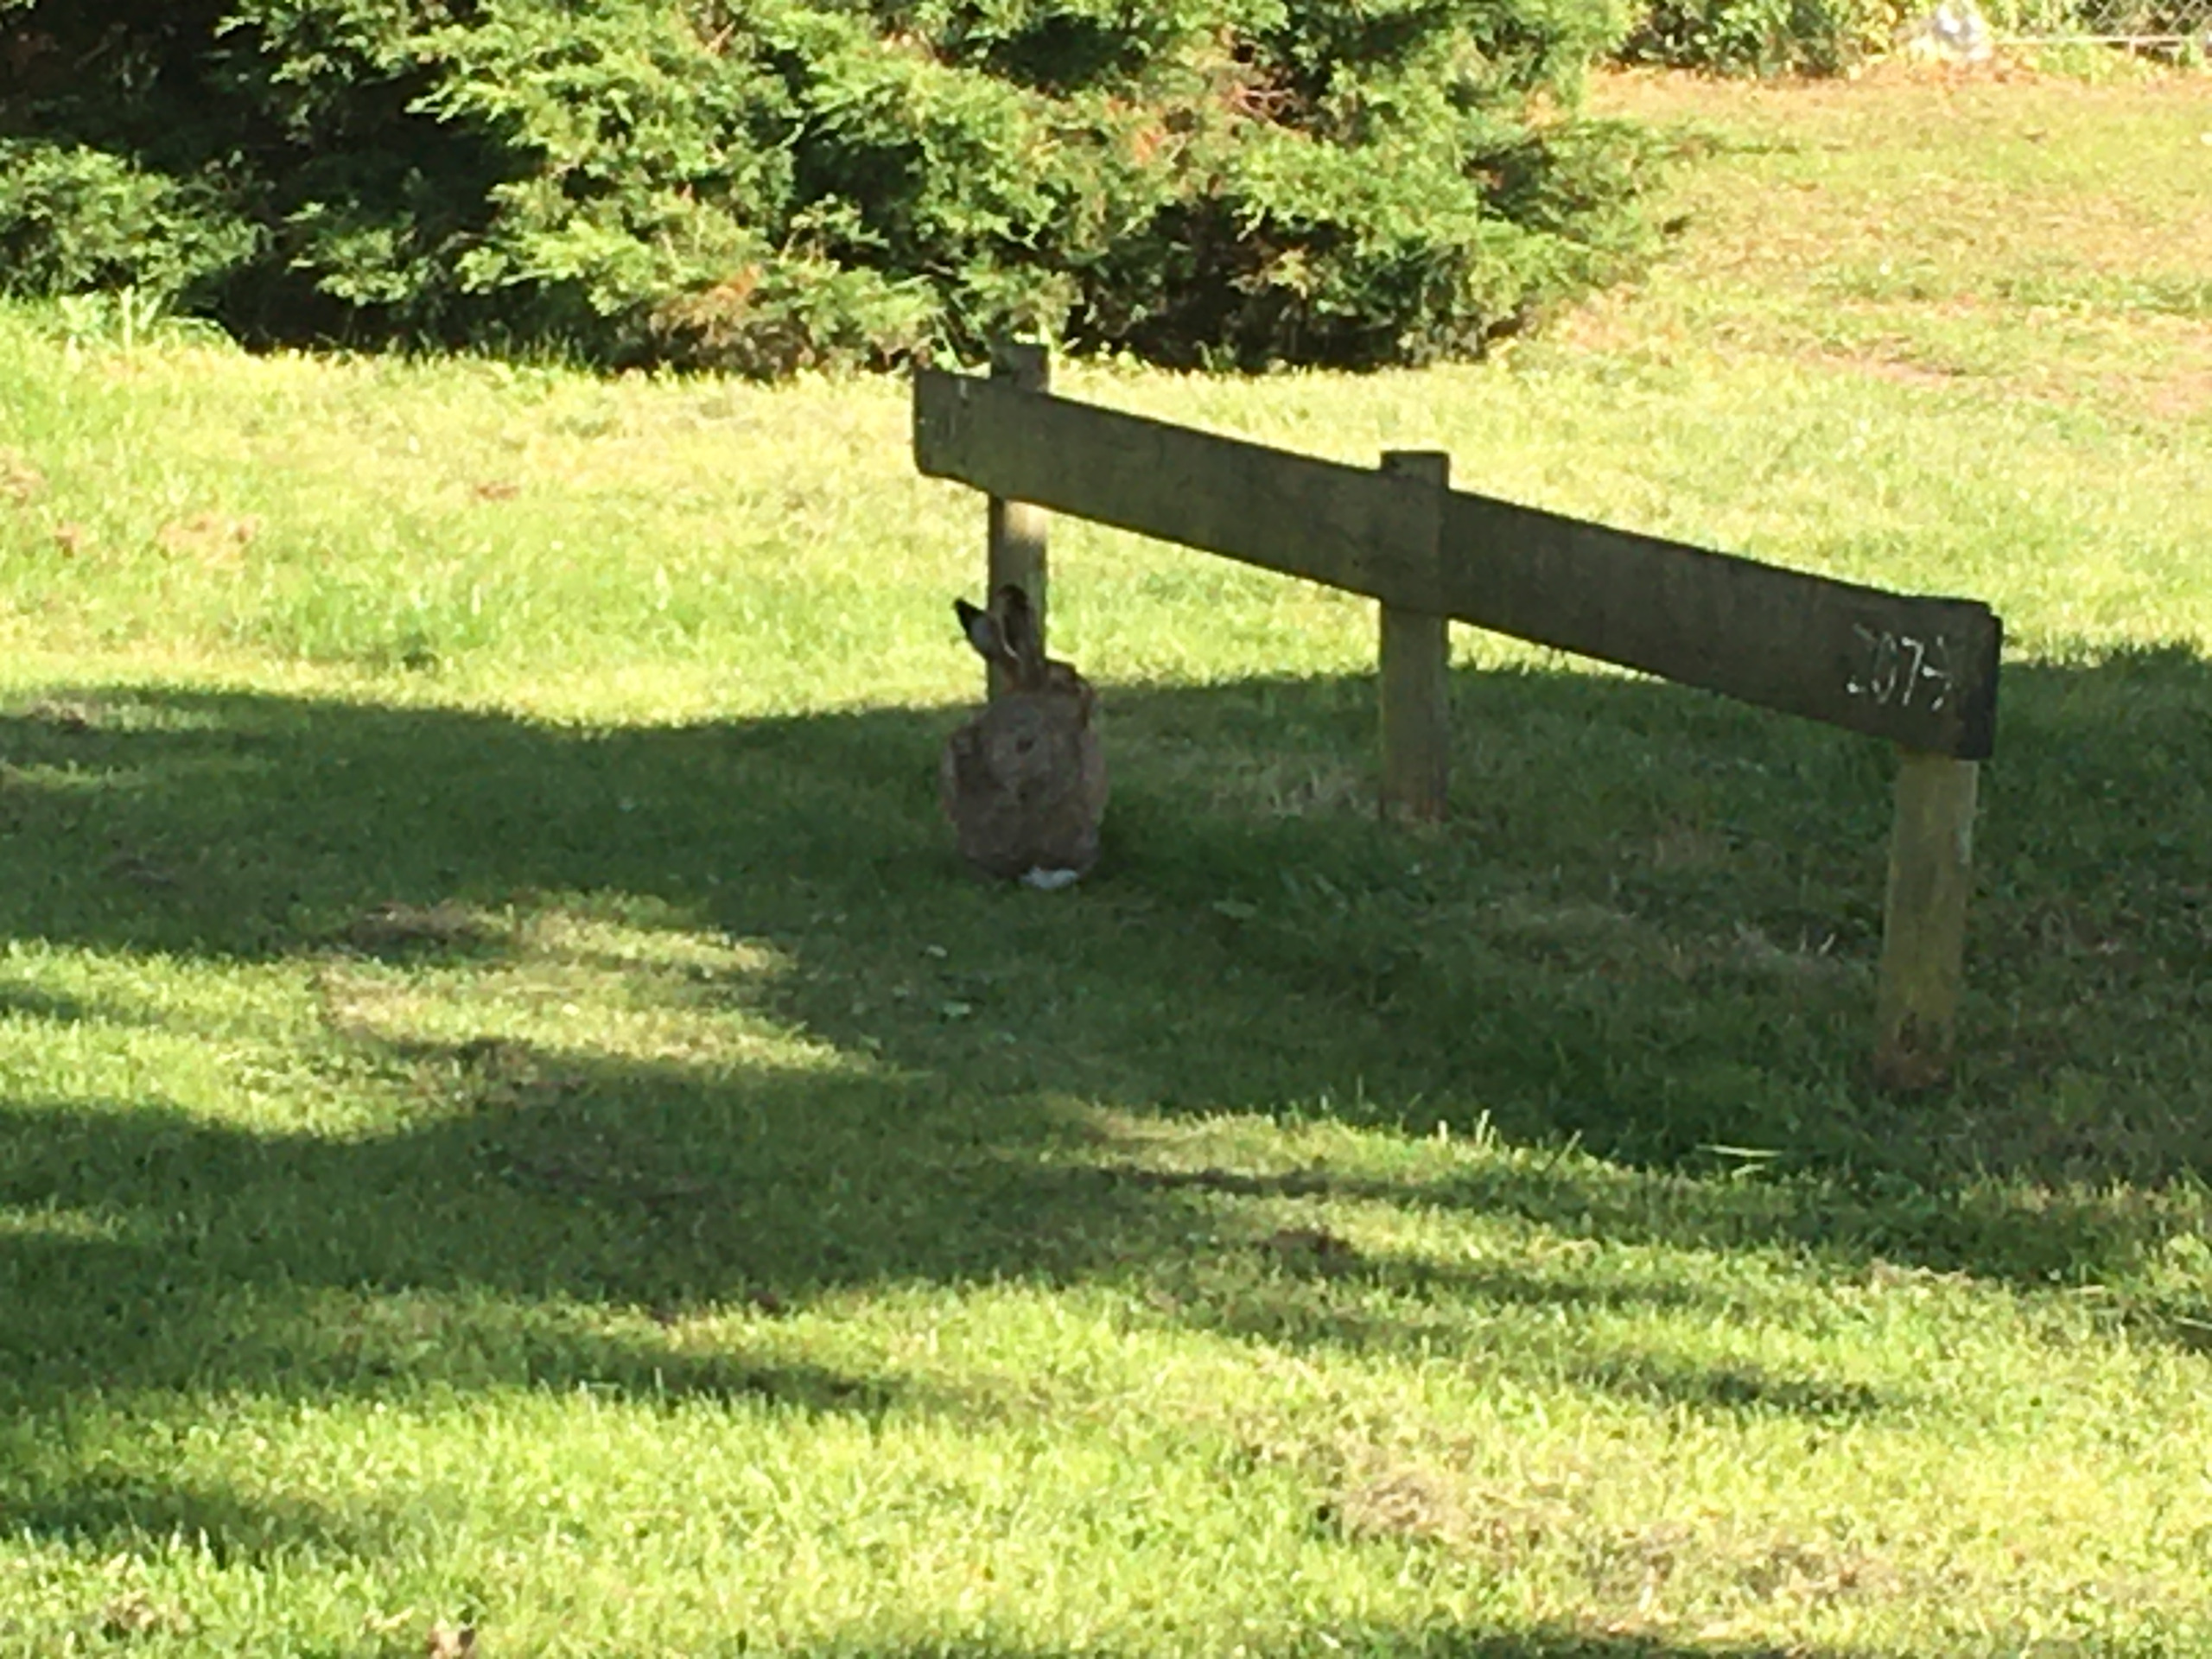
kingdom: Animalia
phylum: Chordata
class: Mammalia
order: Lagomorpha
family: Leporidae
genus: Lepus
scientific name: Lepus europaeus
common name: Hare
